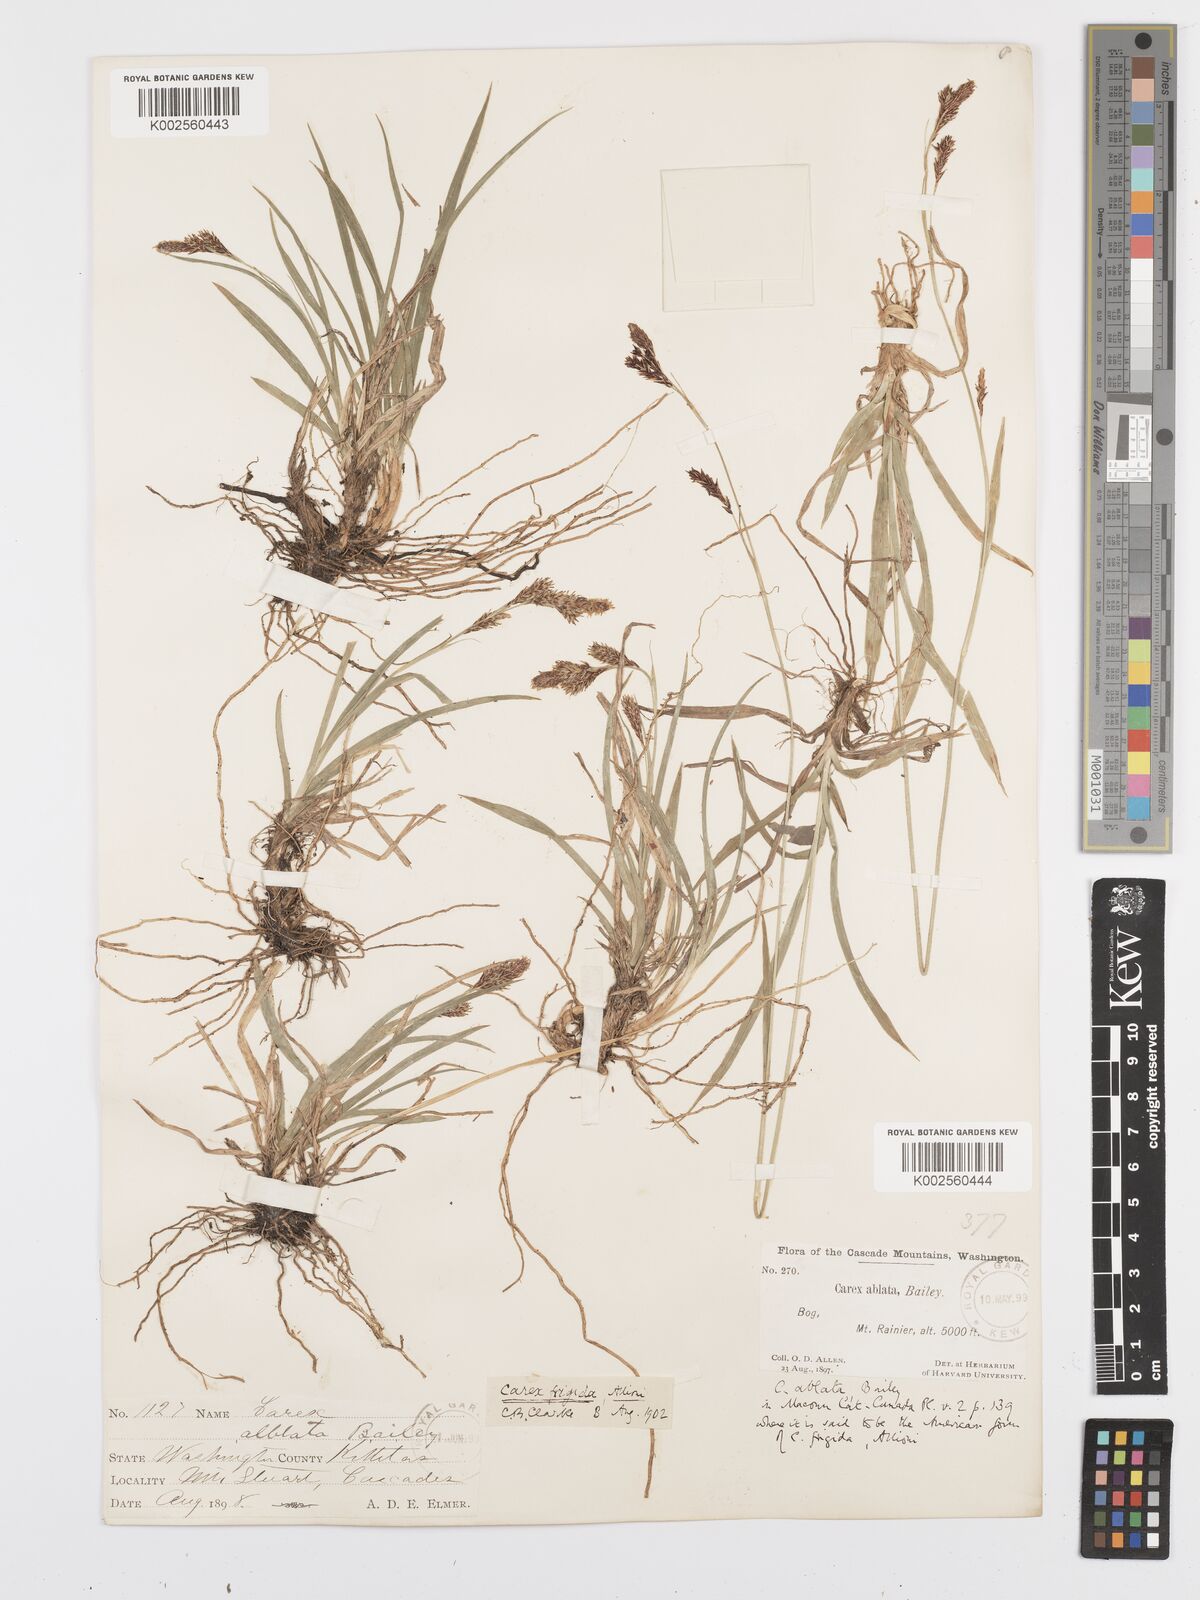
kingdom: Plantae
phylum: Tracheophyta
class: Liliopsida
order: Poales
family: Cyperaceae
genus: Carex
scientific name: Carex luzulina
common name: Spring sedge
